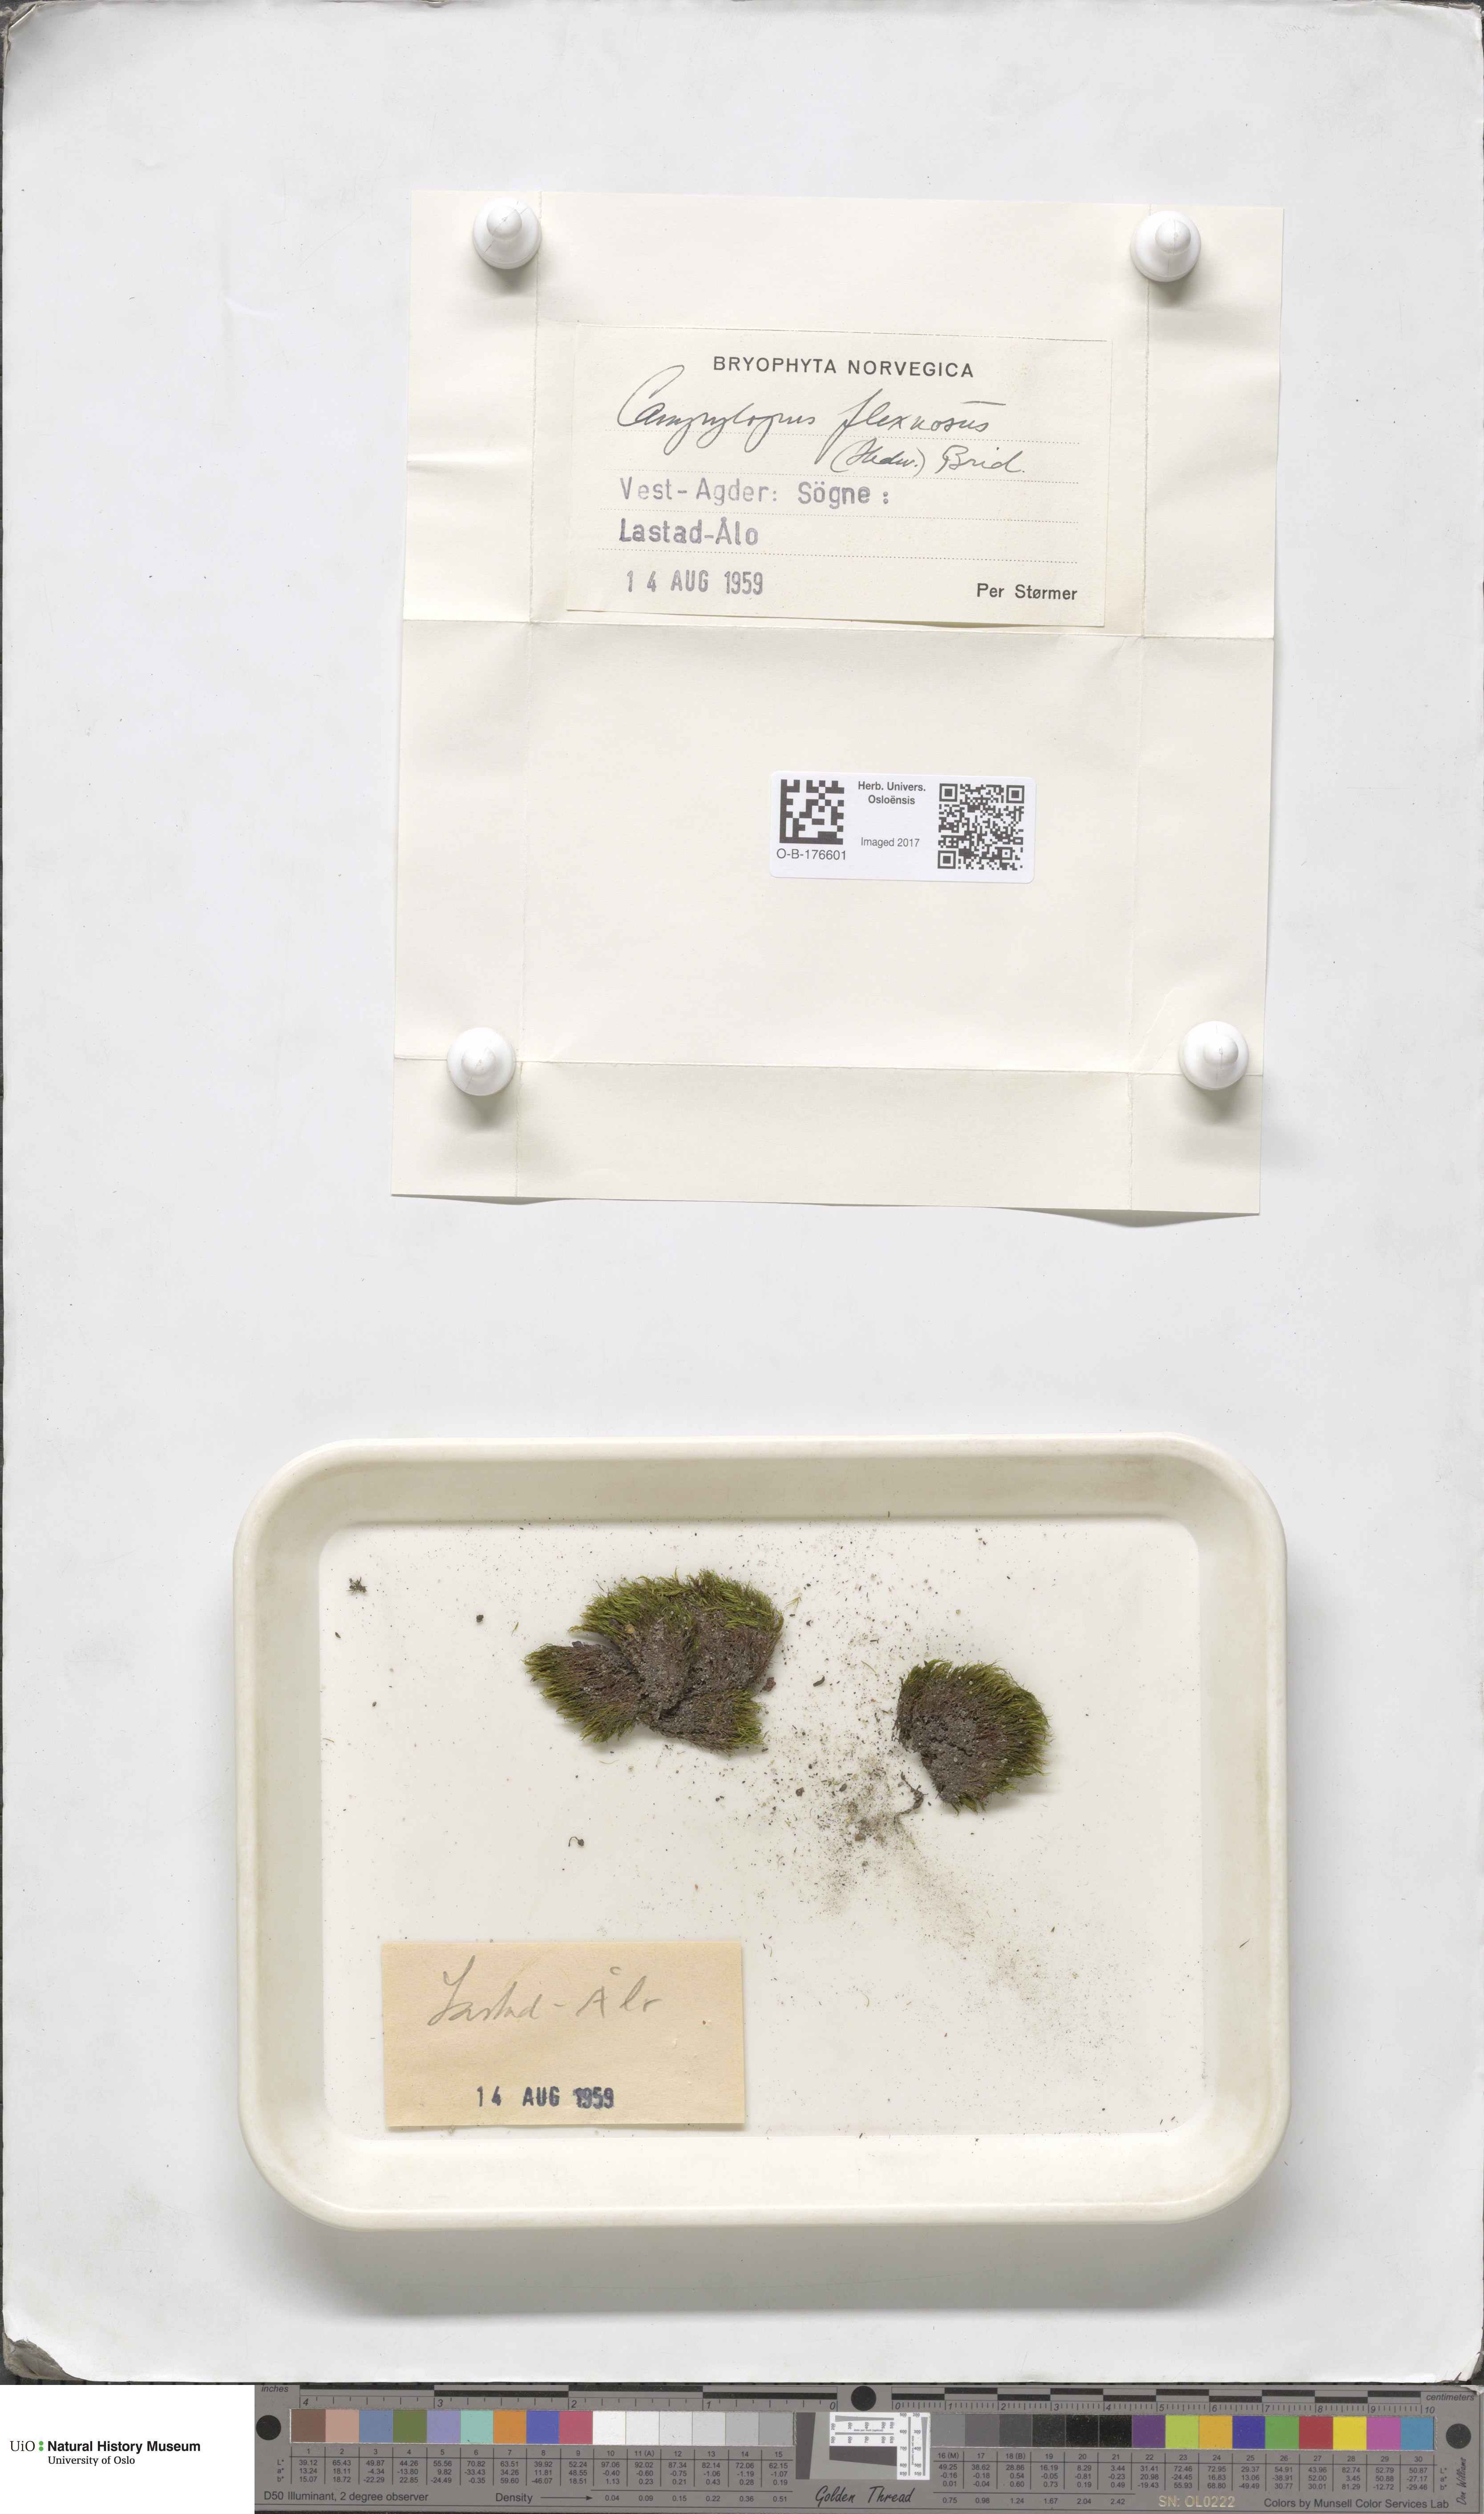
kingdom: Plantae
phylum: Bryophyta
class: Bryopsida
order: Dicranales
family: Leucobryaceae
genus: Campylopus
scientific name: Campylopus flexuosus
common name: Rusty swan-neck moss
